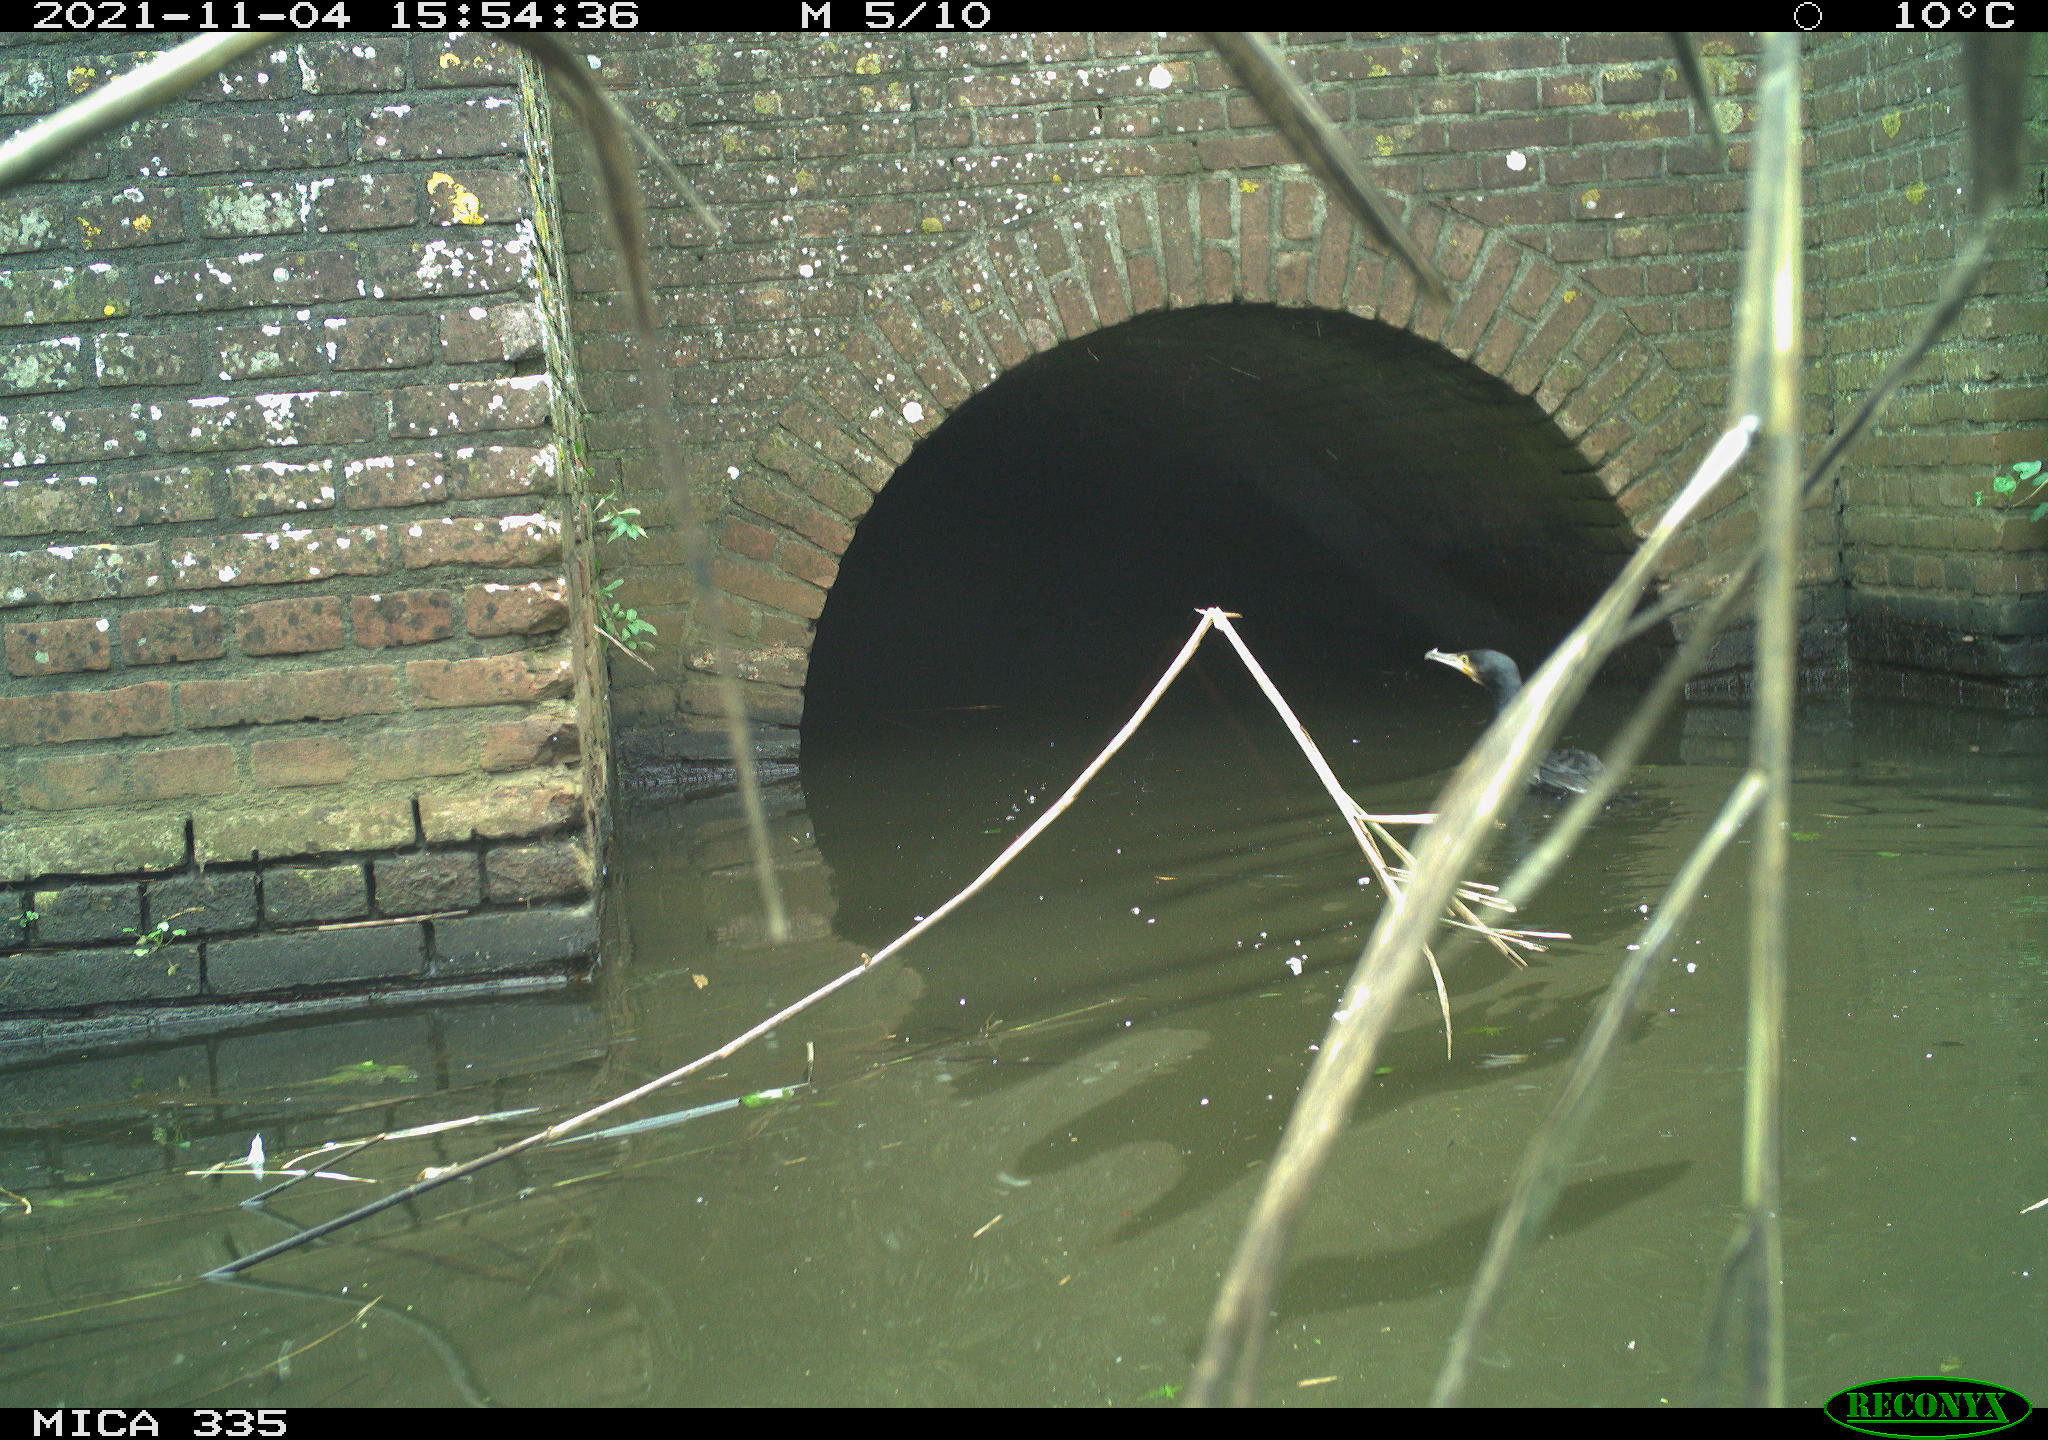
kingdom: Animalia
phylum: Chordata
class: Aves
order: Suliformes
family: Phalacrocoracidae
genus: Phalacrocorax
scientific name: Phalacrocorax carbo
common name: Great cormorant
